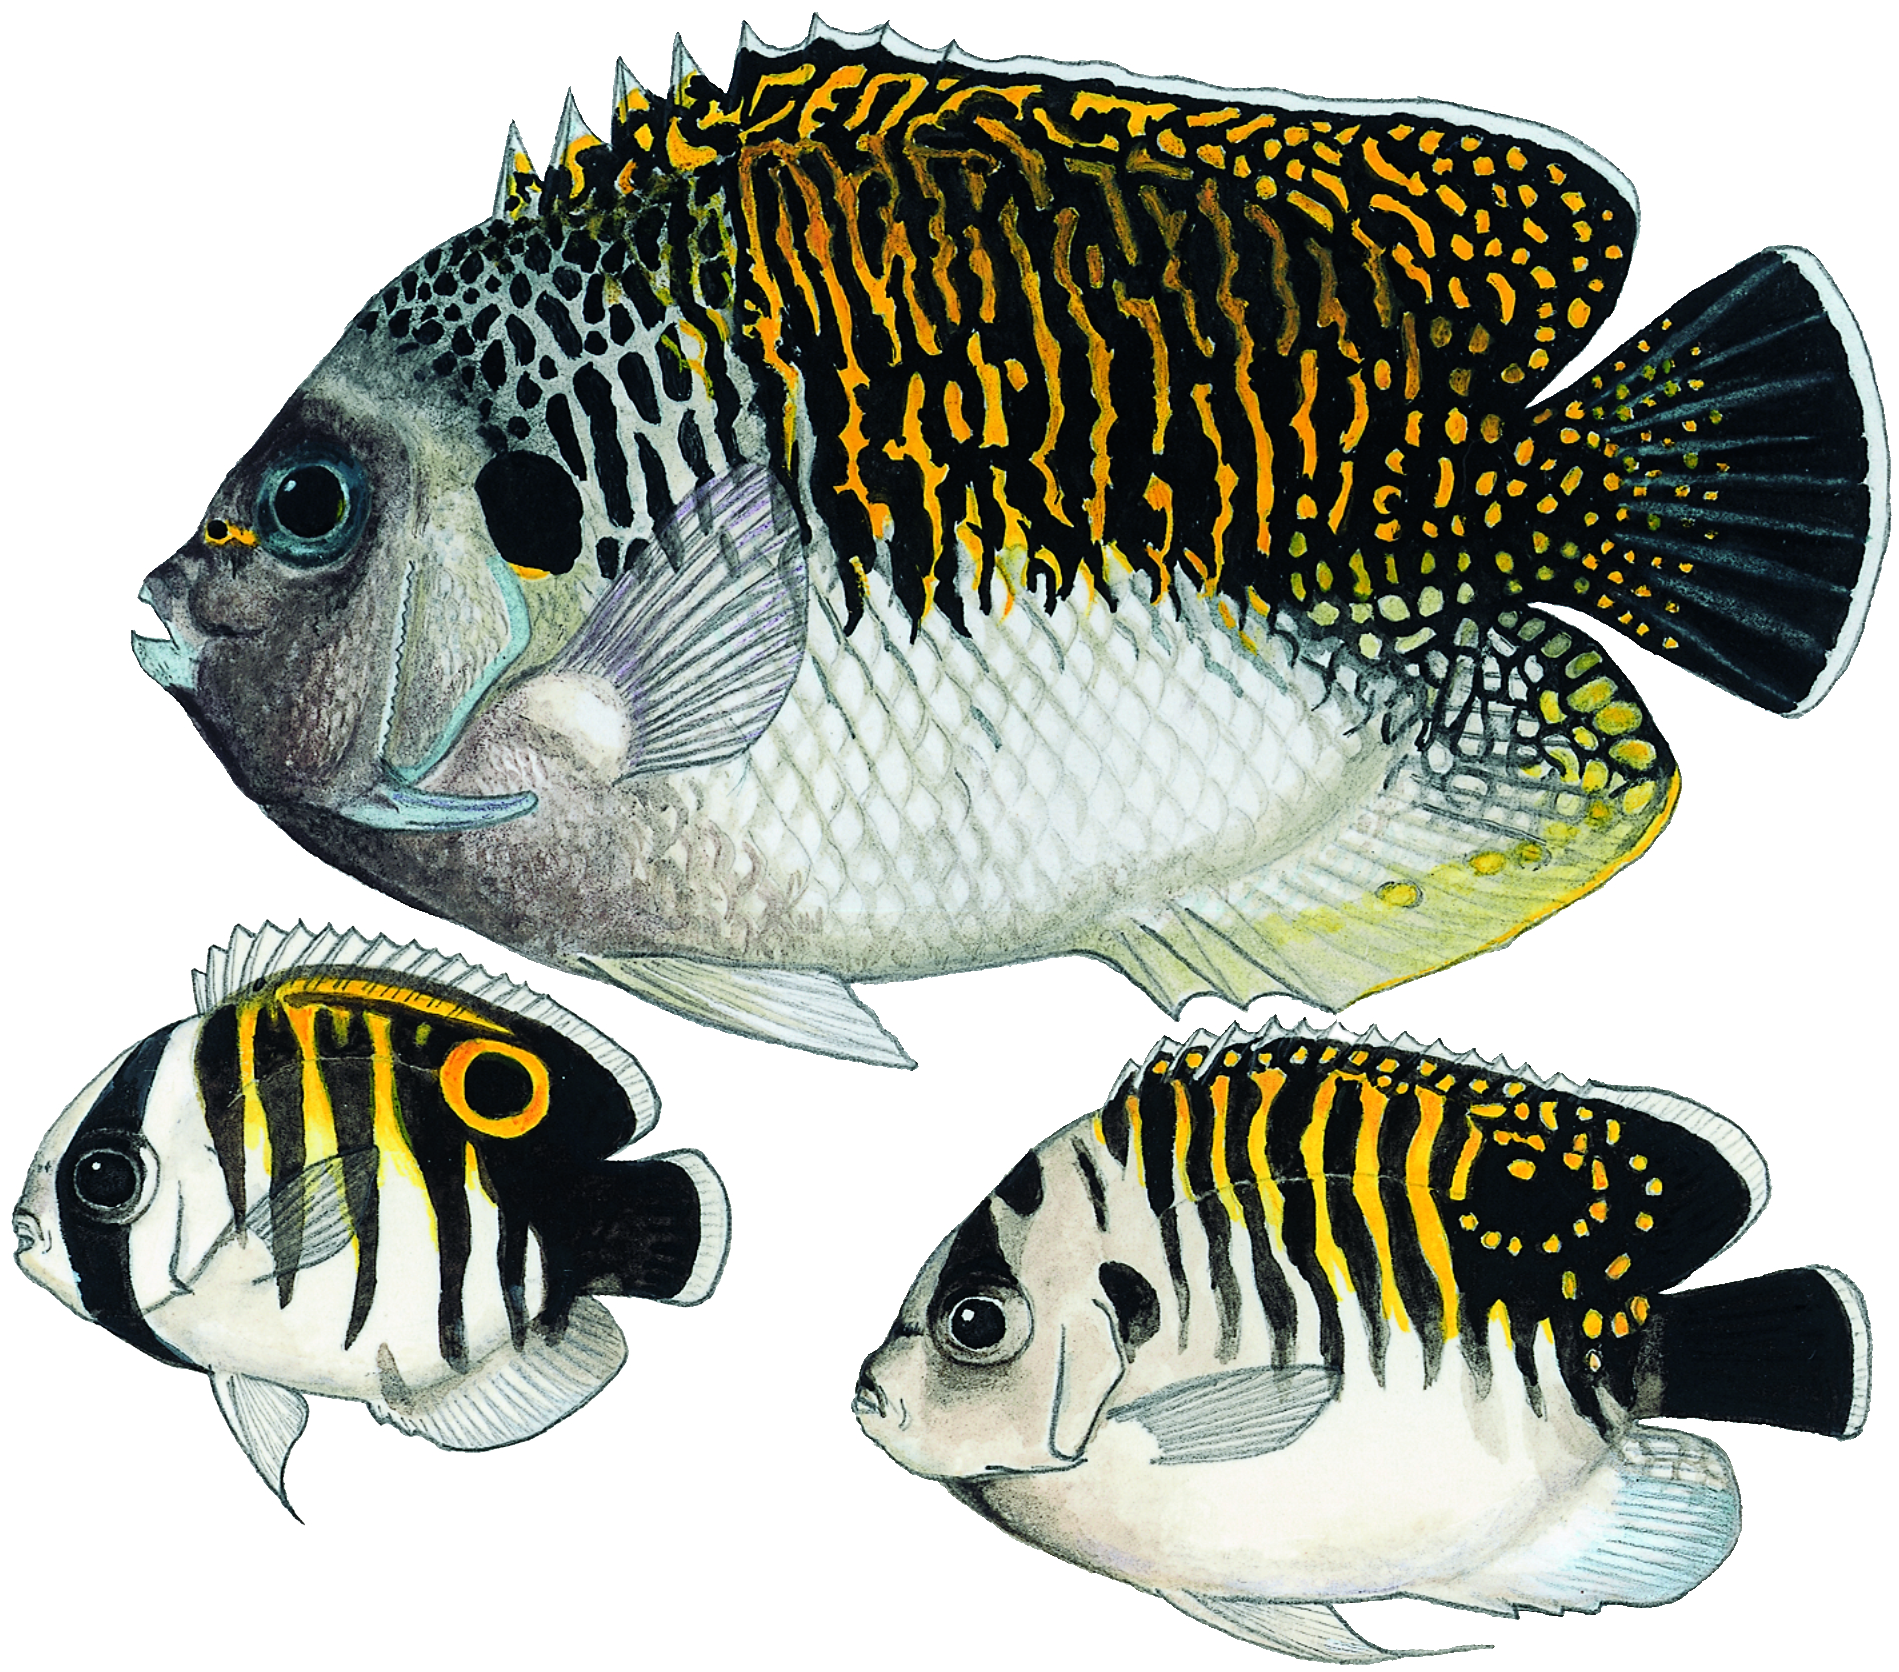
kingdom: Animalia
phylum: Chordata
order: Perciformes
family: Pomacanthidae
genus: Apolemichthys
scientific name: Apolemichthys kingi
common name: Tiger angelfish
